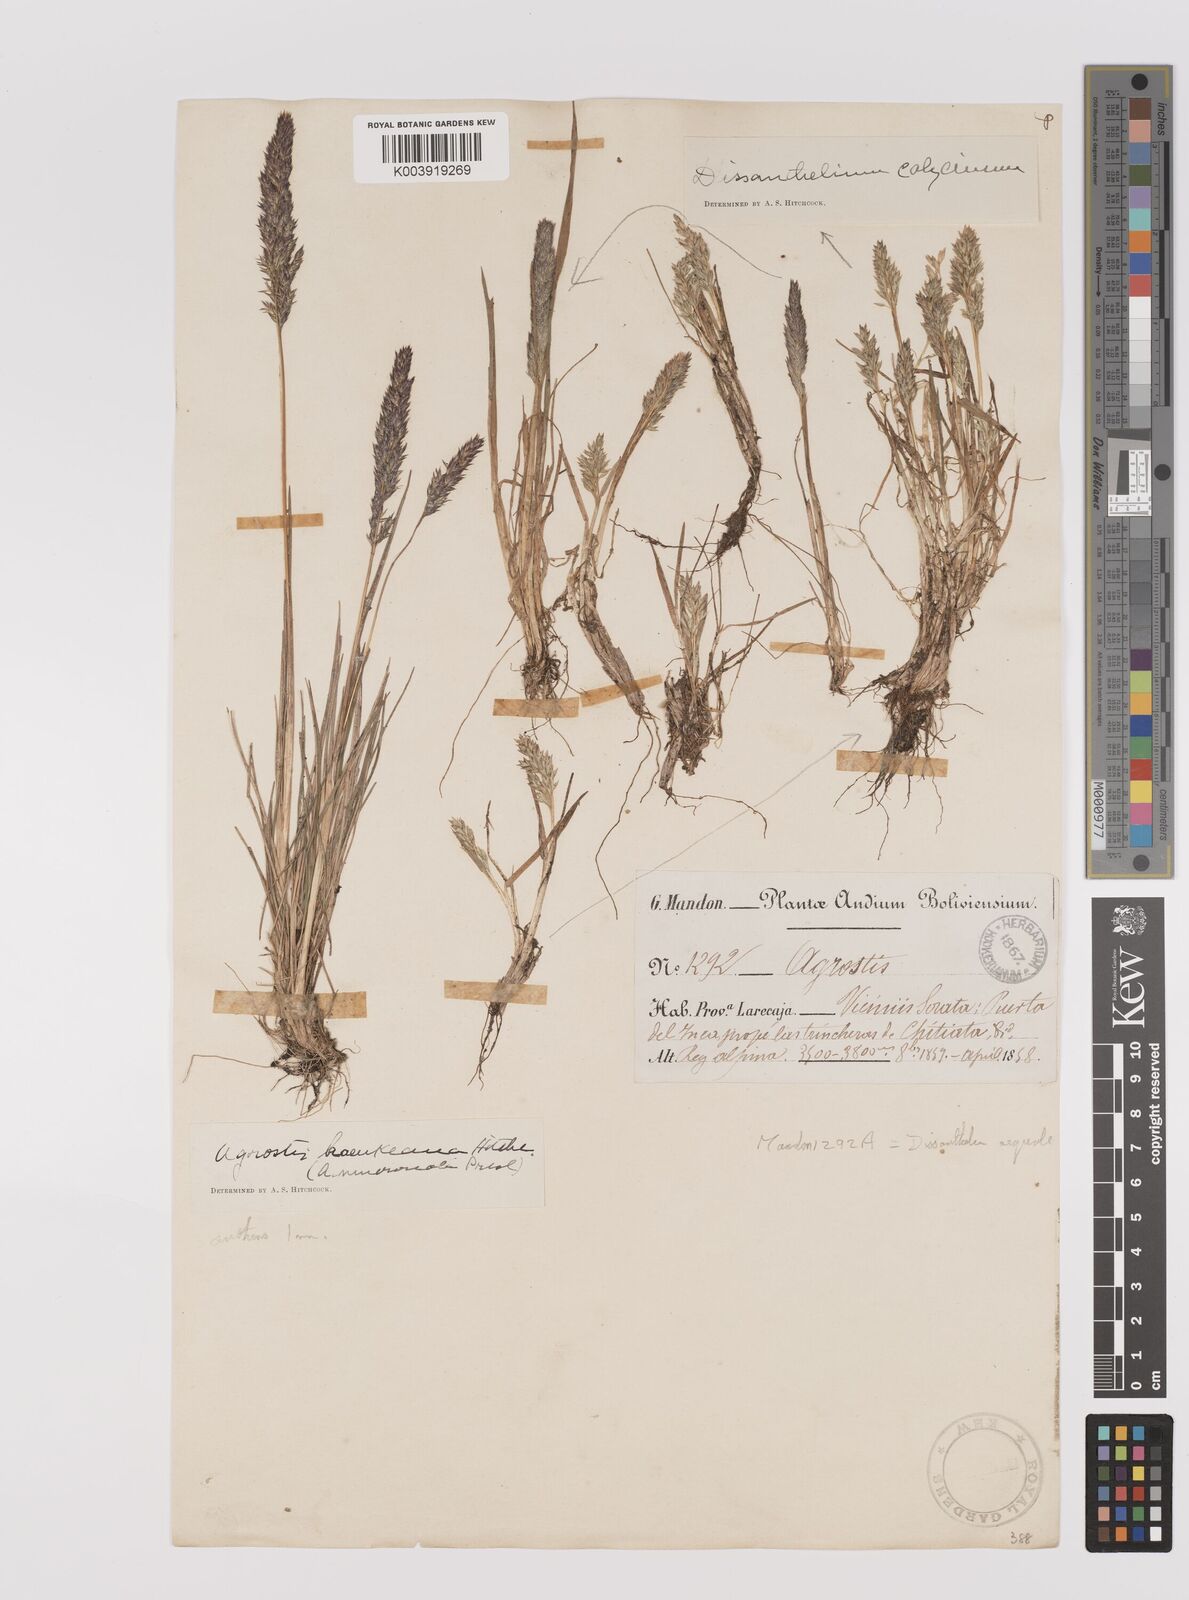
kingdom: Plantae
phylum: Tracheophyta
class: Liliopsida
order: Poales
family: Poaceae
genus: Poa
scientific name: Poa calycina
